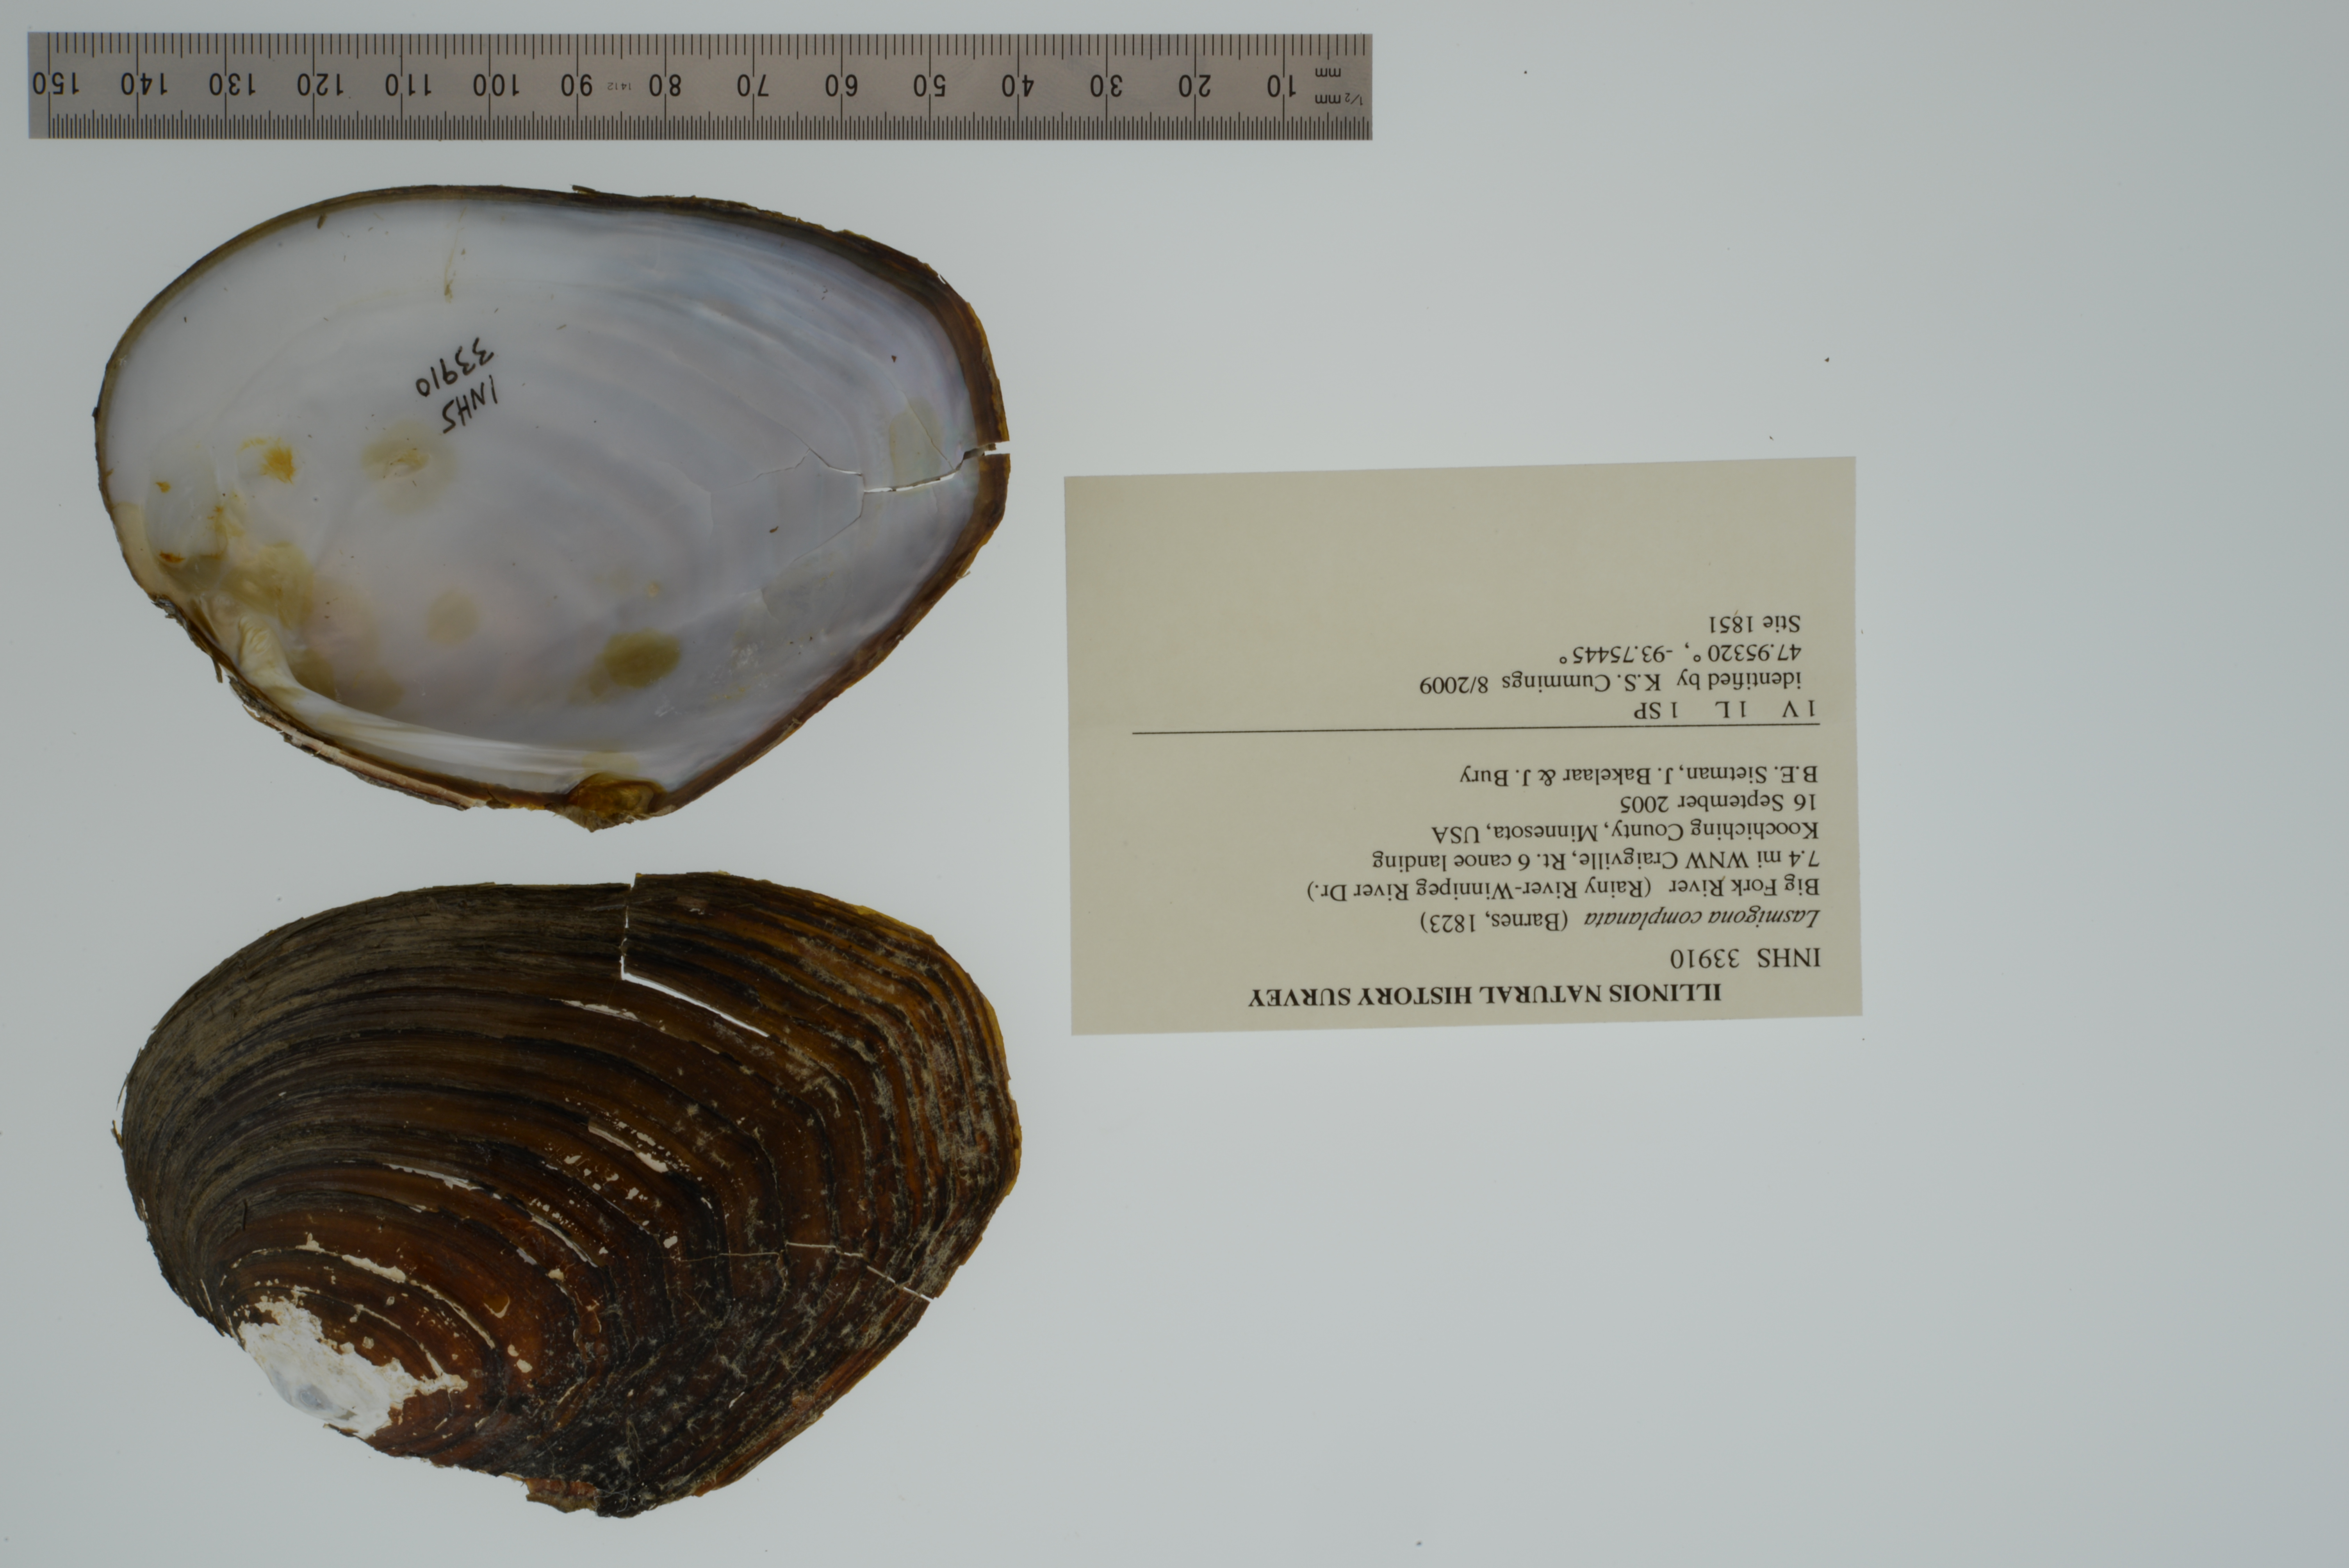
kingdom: Animalia
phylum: Mollusca
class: Bivalvia
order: Unionida
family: Unionidae
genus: Lasmigona
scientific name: Lasmigona complanata
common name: White heelsplitter
